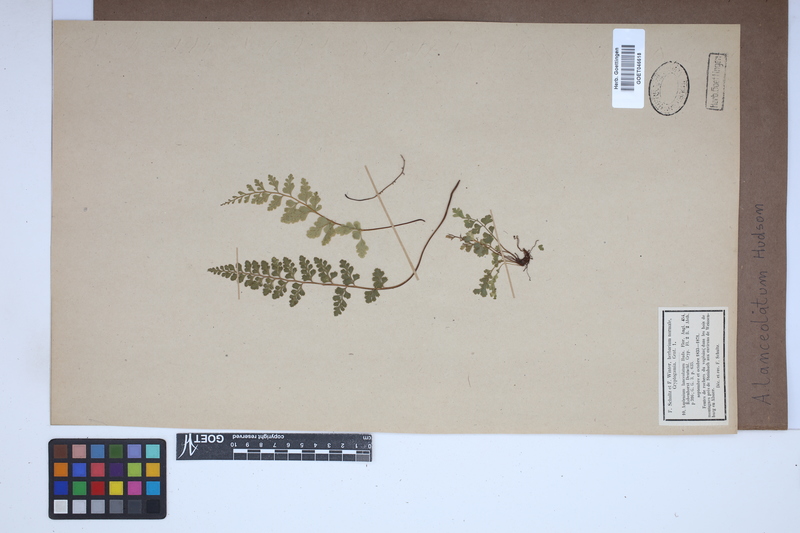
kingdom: Plantae
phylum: Tracheophyta
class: Polypodiopsida
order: Polypodiales
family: Aspleniaceae
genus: Asplenium
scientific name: Asplenium obovatum
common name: Lanceolate spleenwort
